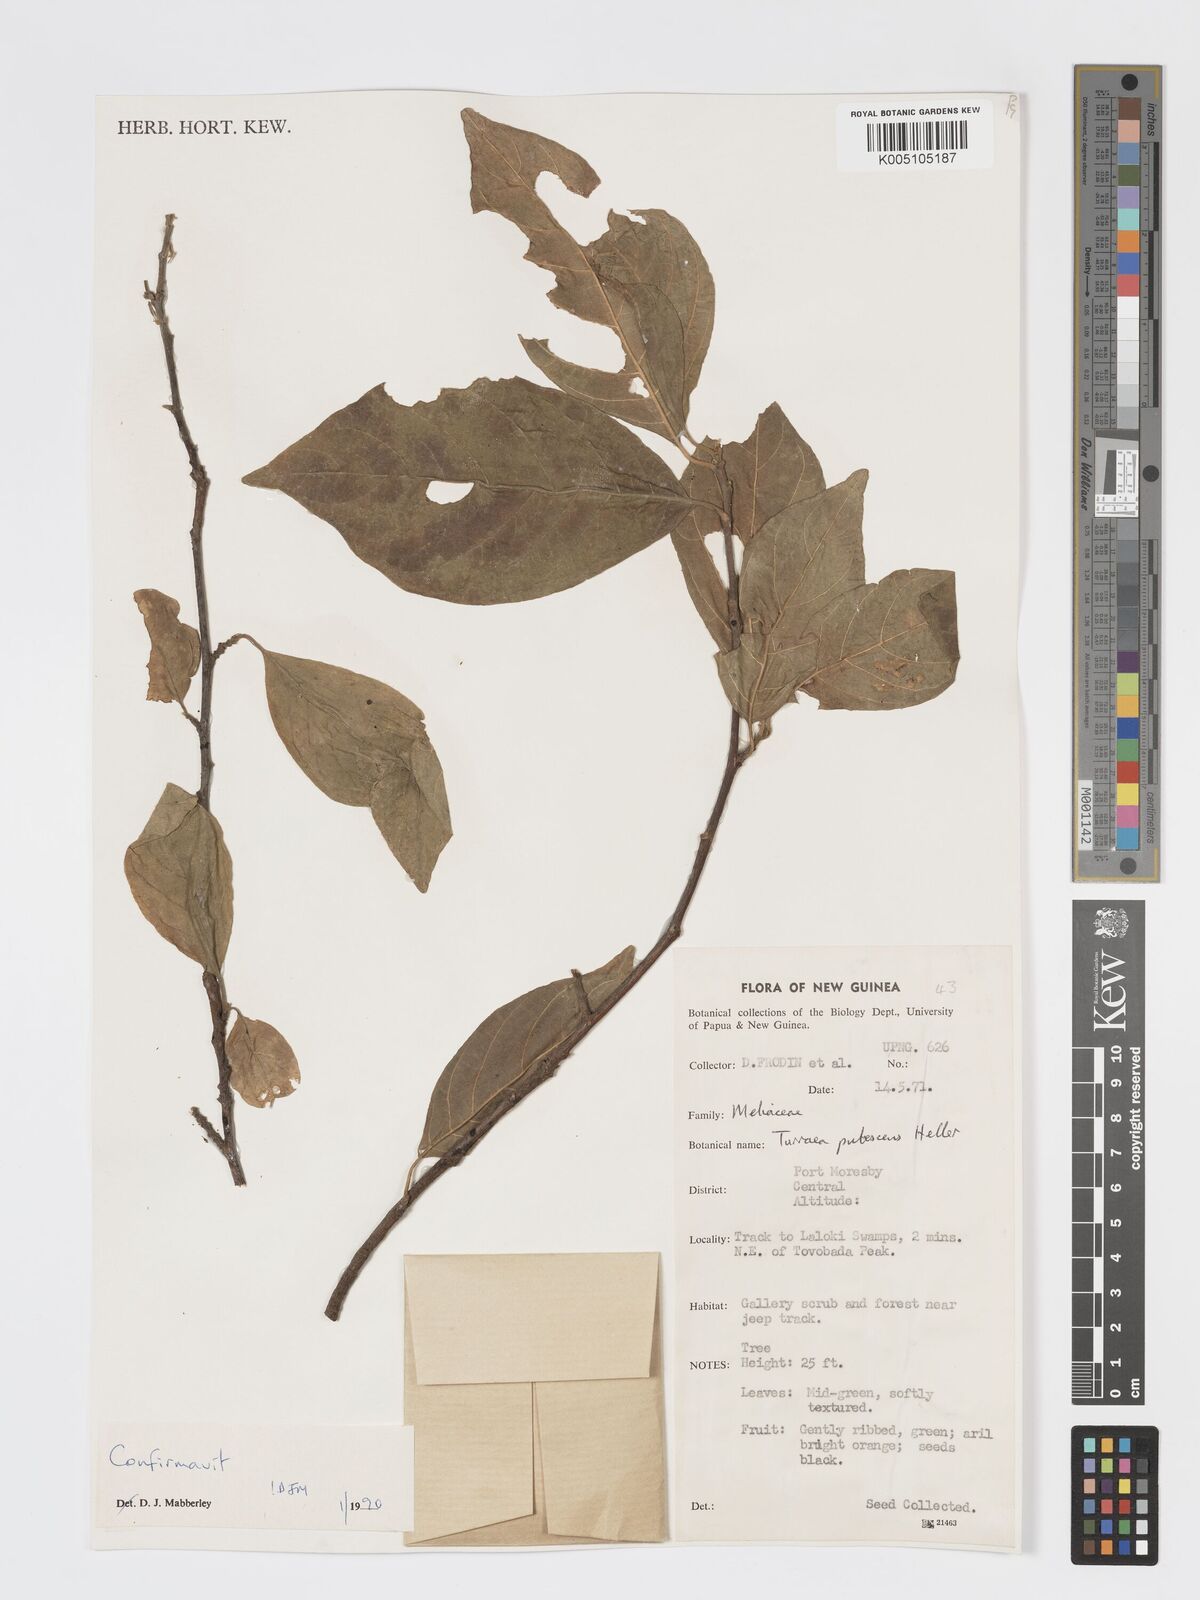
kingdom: Plantae
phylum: Tracheophyta
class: Magnoliopsida
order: Sapindales
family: Meliaceae
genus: Turraea
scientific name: Turraea
